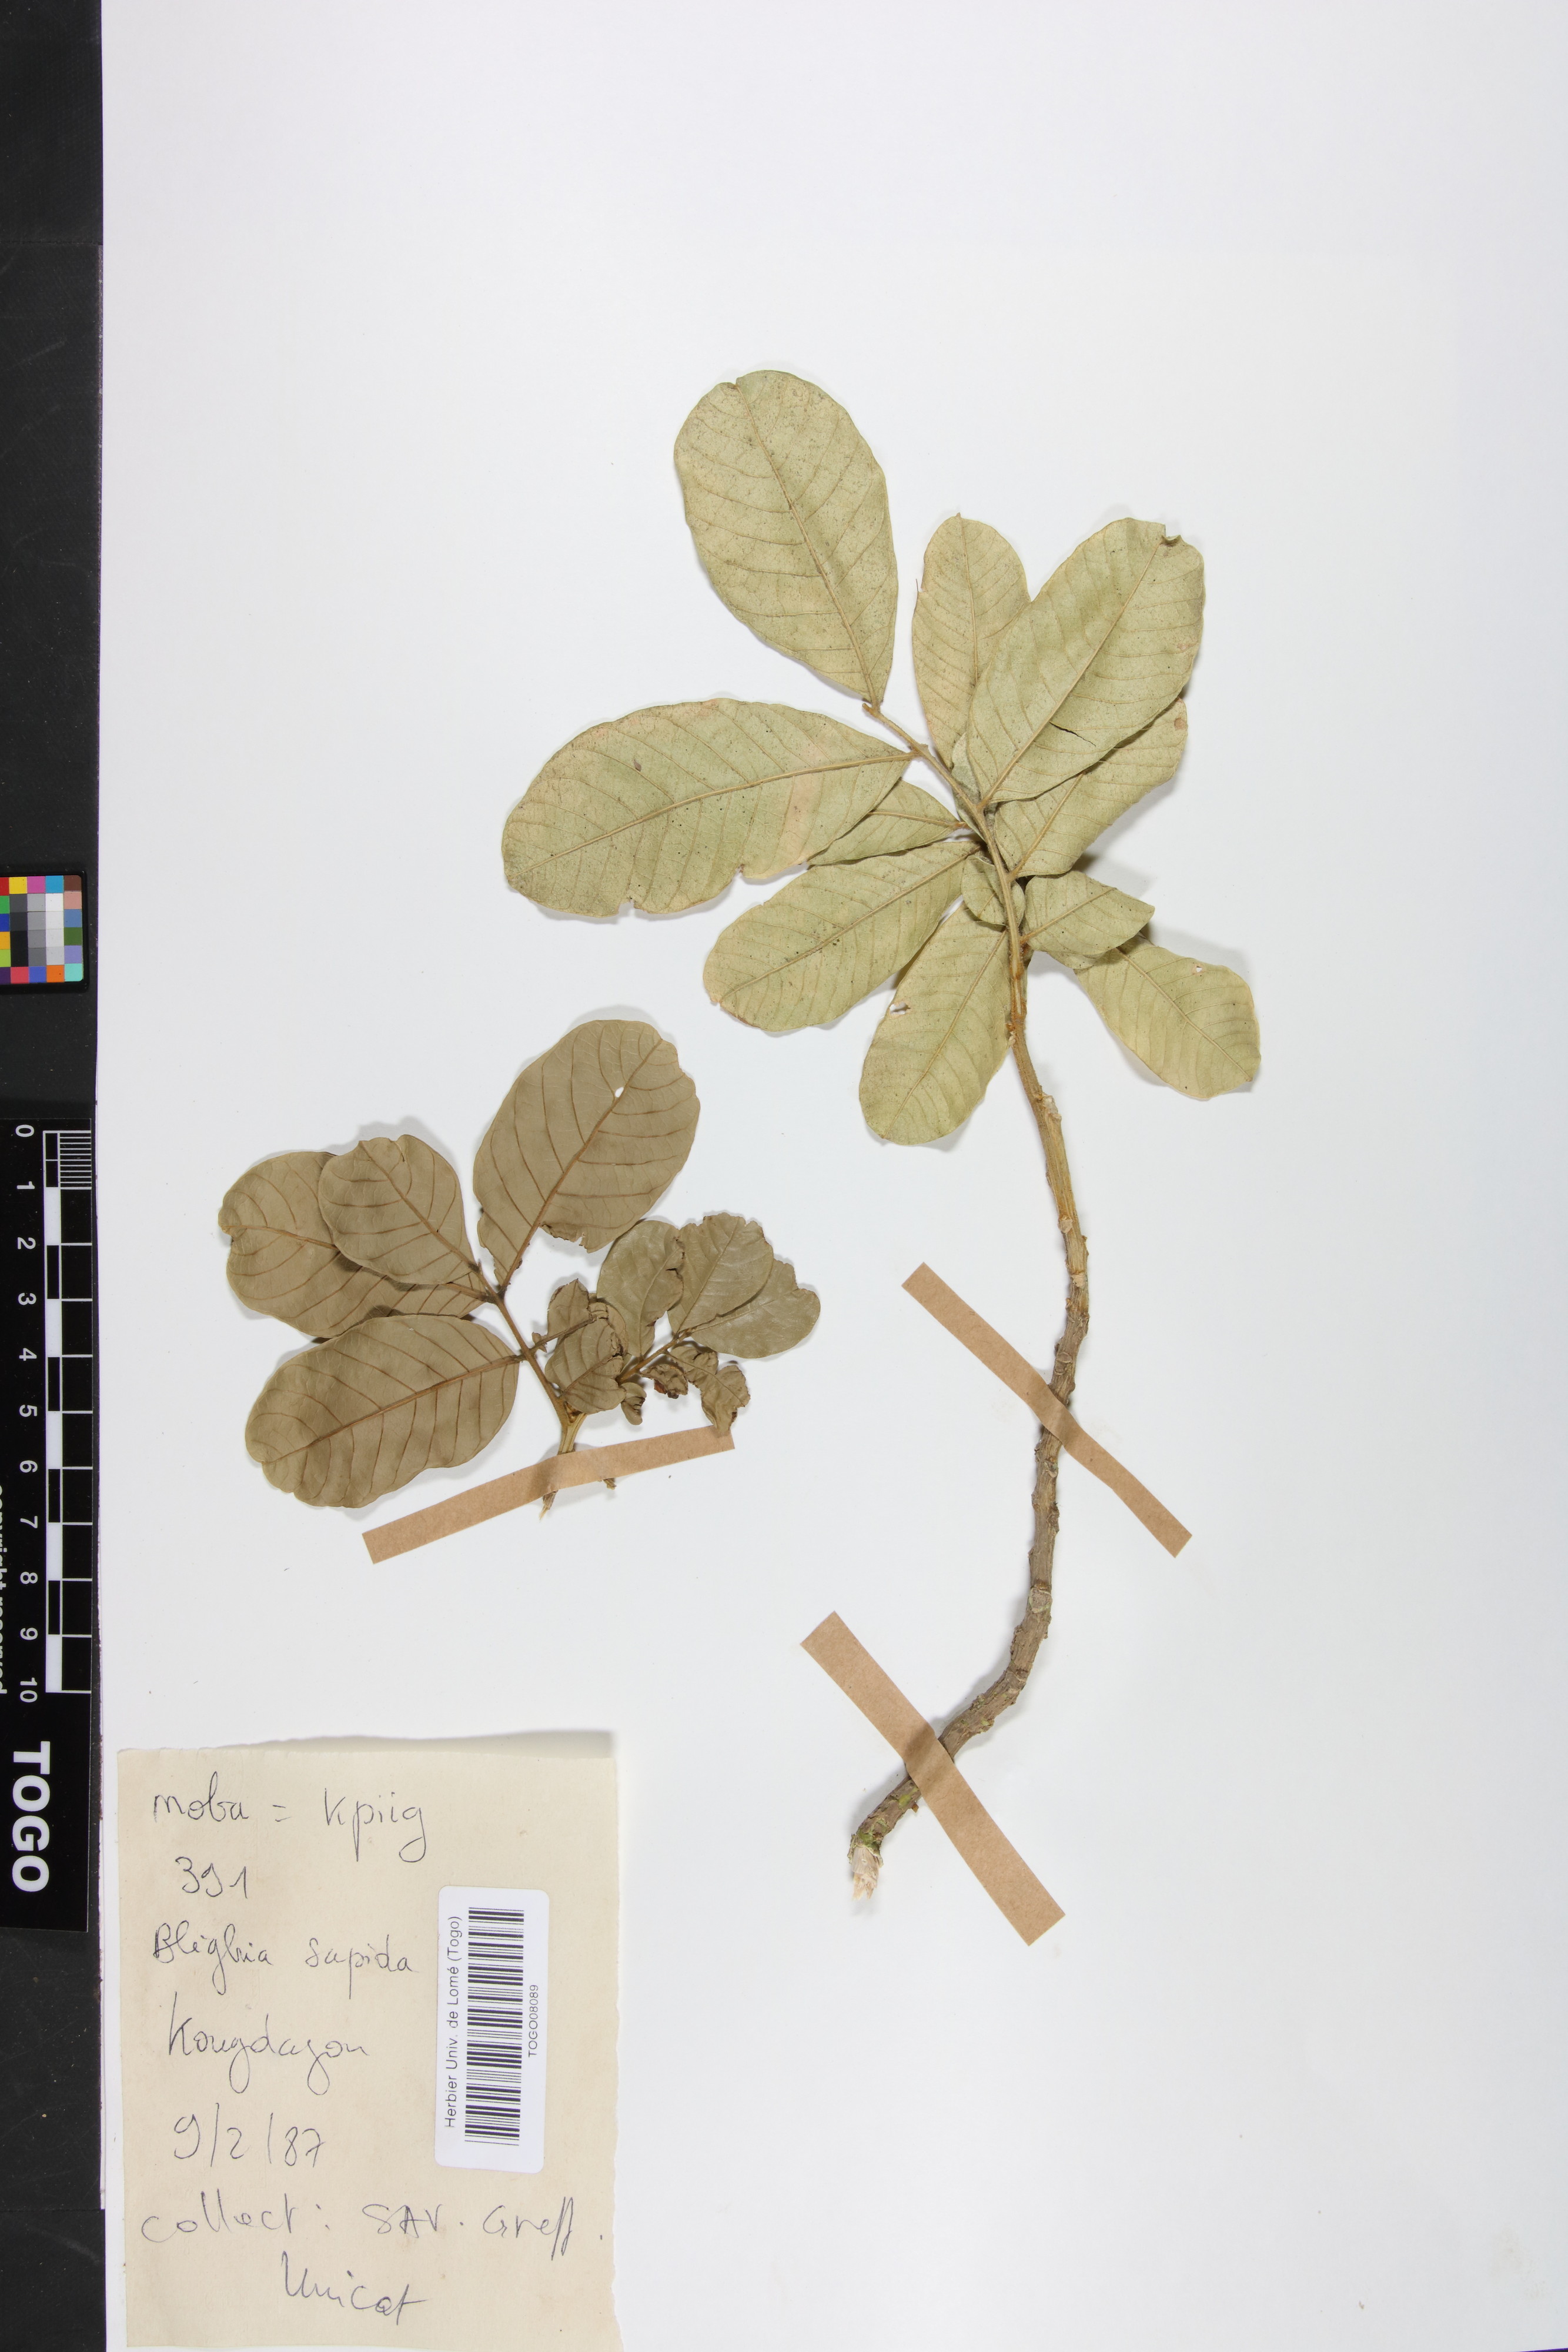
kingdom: Plantae
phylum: Tracheophyta
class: Magnoliopsida
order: Sapindales
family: Sapindaceae
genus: Blighia
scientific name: Blighia sapida
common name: Akee
